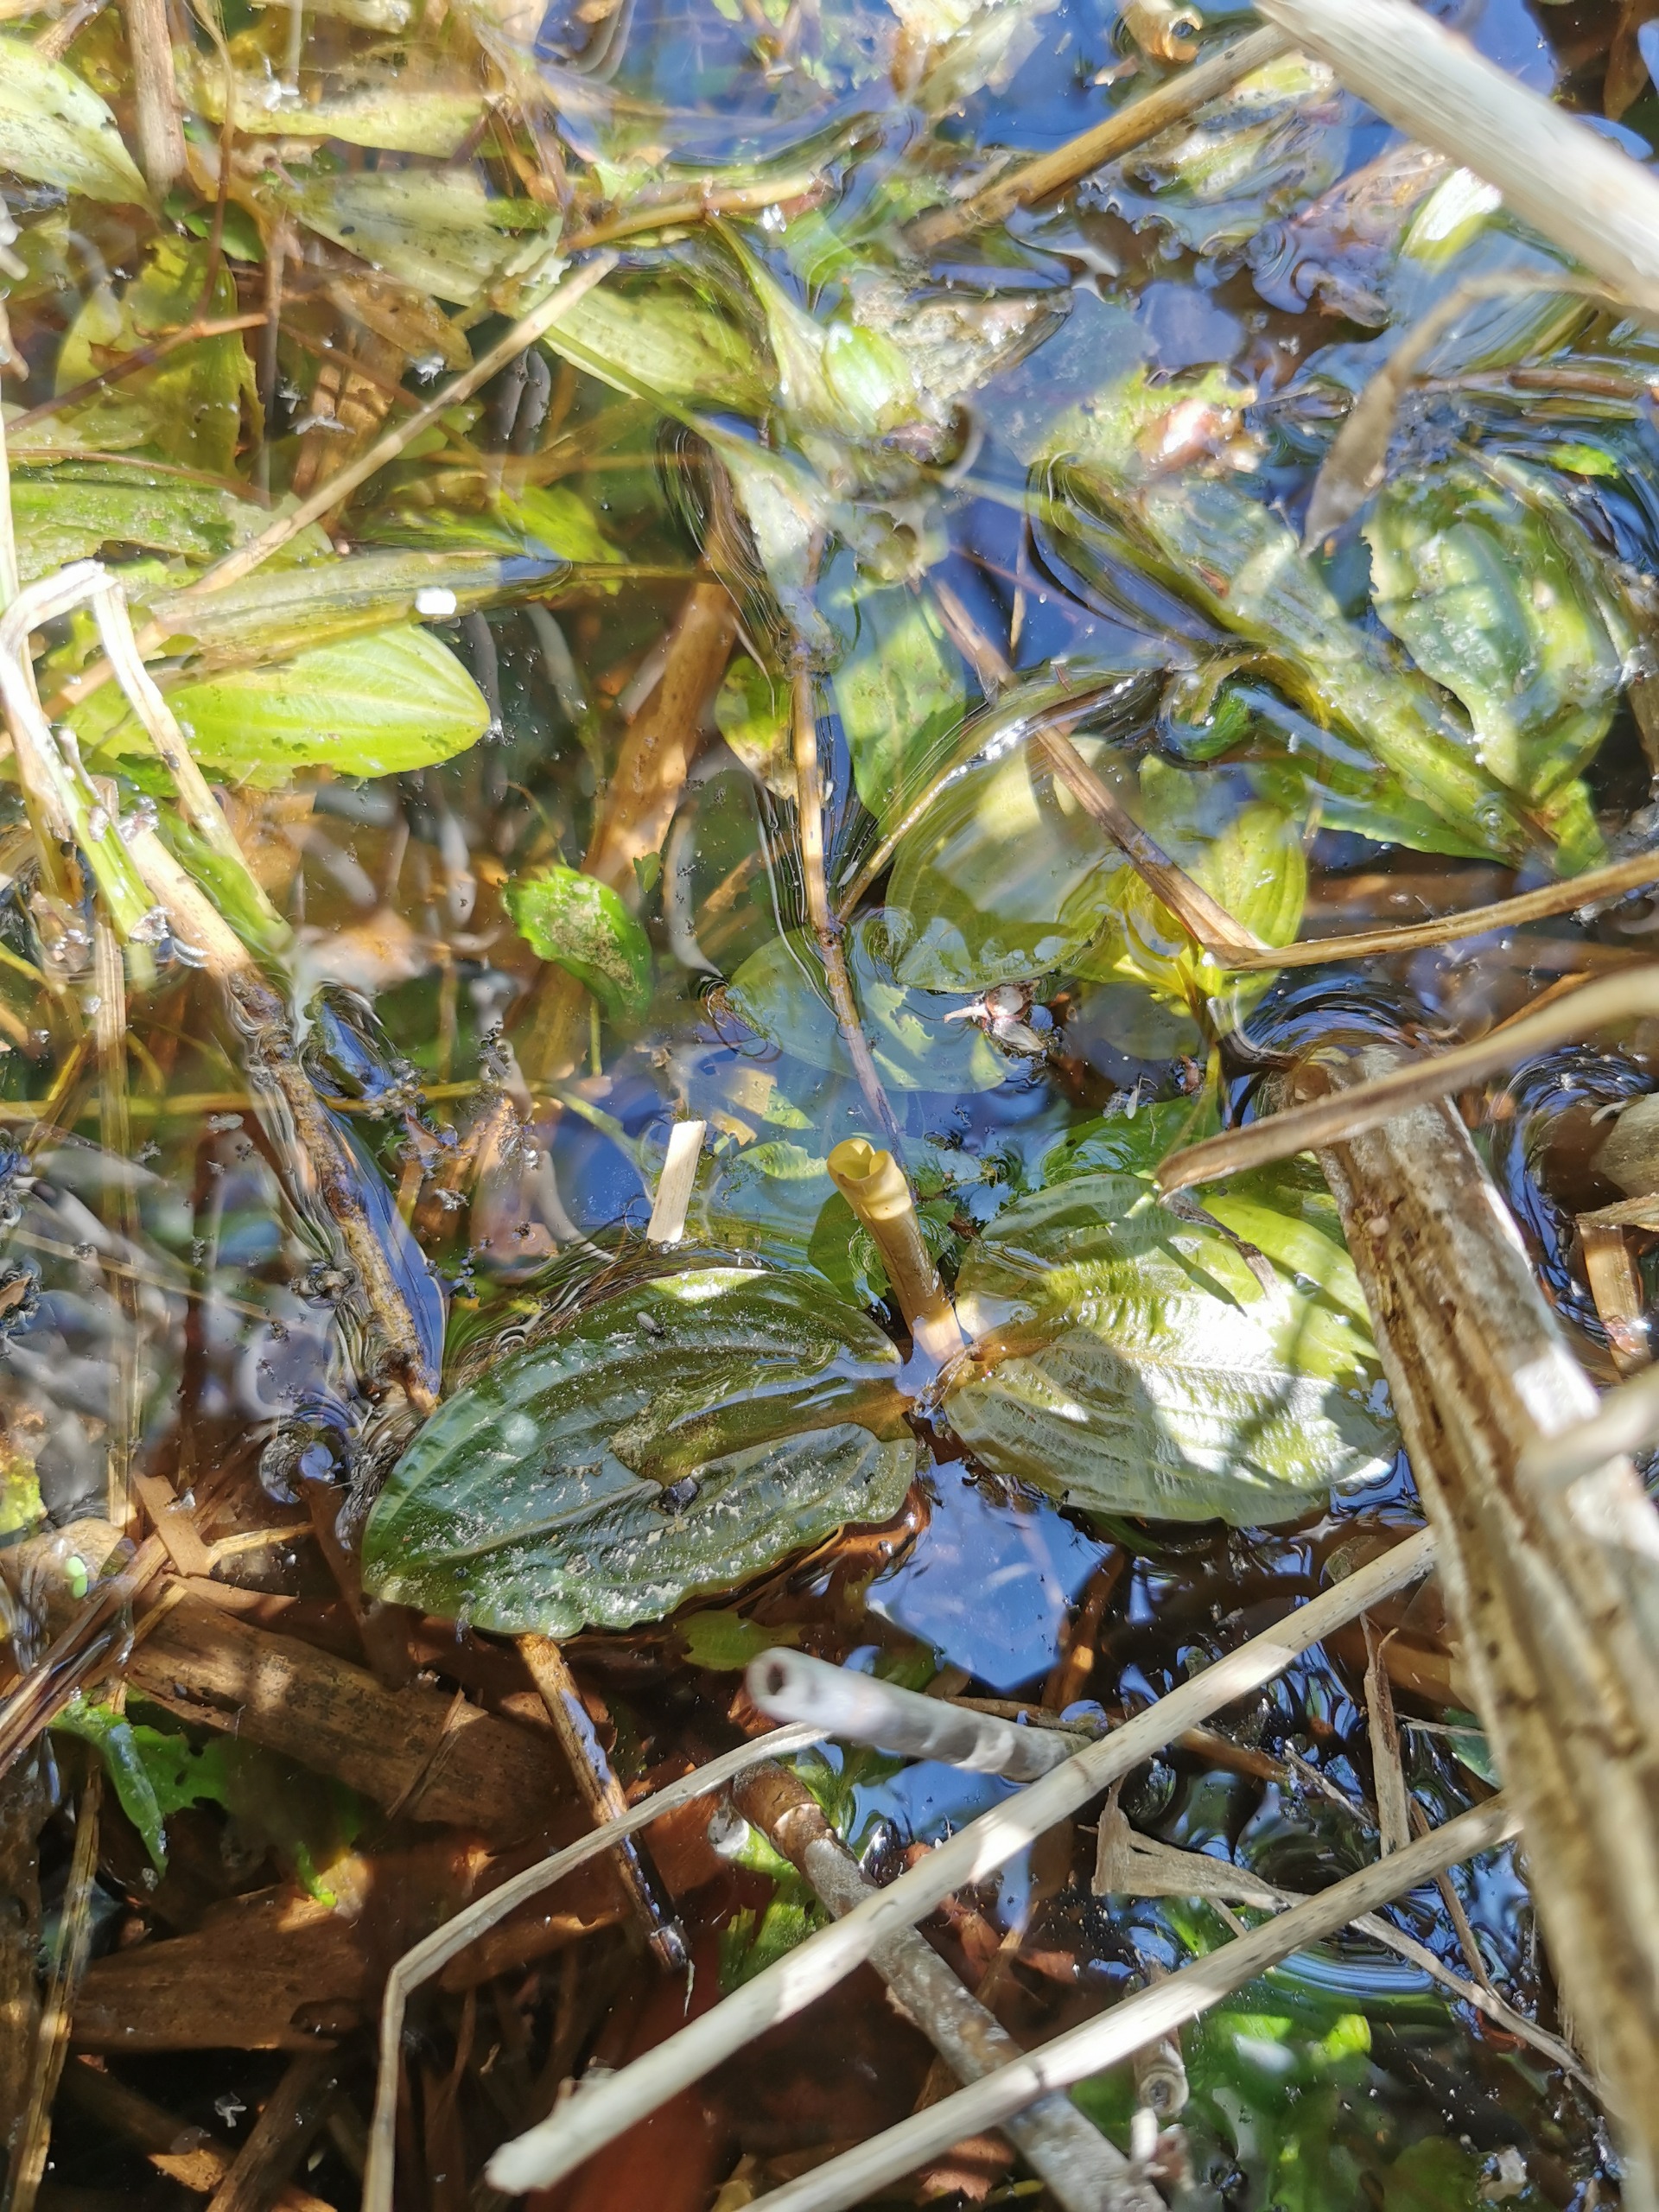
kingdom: Plantae
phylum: Tracheophyta
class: Liliopsida
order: Alismatales
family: Potamogetonaceae
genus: Potamogeton
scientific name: Potamogeton coloratus
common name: Vejbred-vandaks
